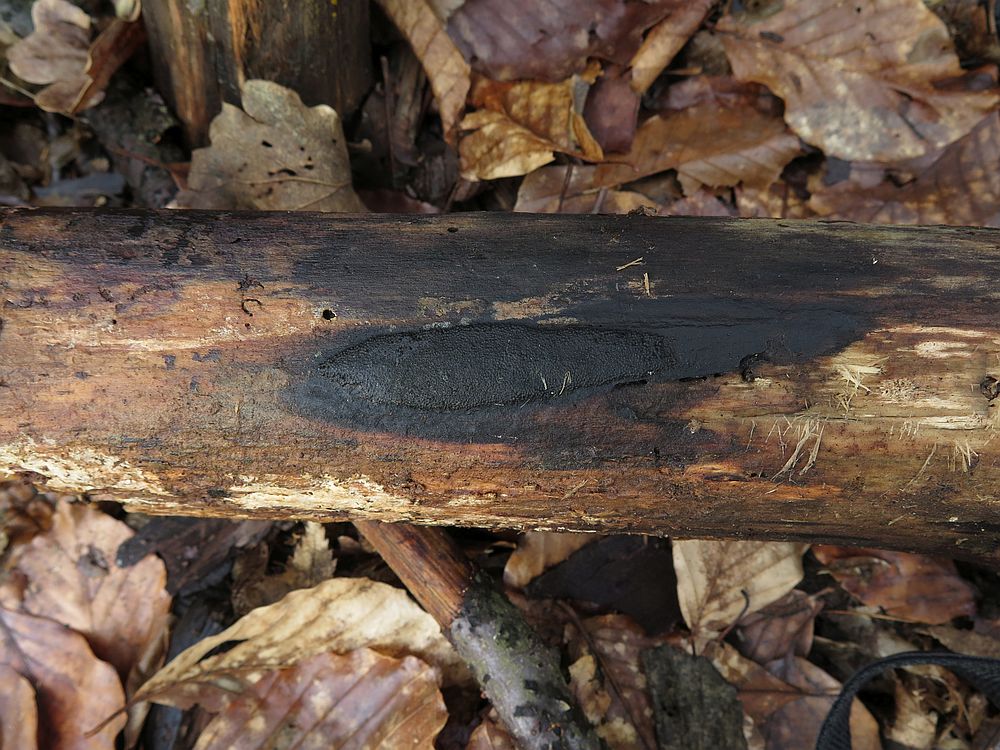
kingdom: Fungi
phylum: Ascomycota
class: Sordariomycetes
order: Xylariales
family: Hypoxylaceae
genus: Hypoxylon
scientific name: Hypoxylon macrocarpum
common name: skorpe-kulbær
